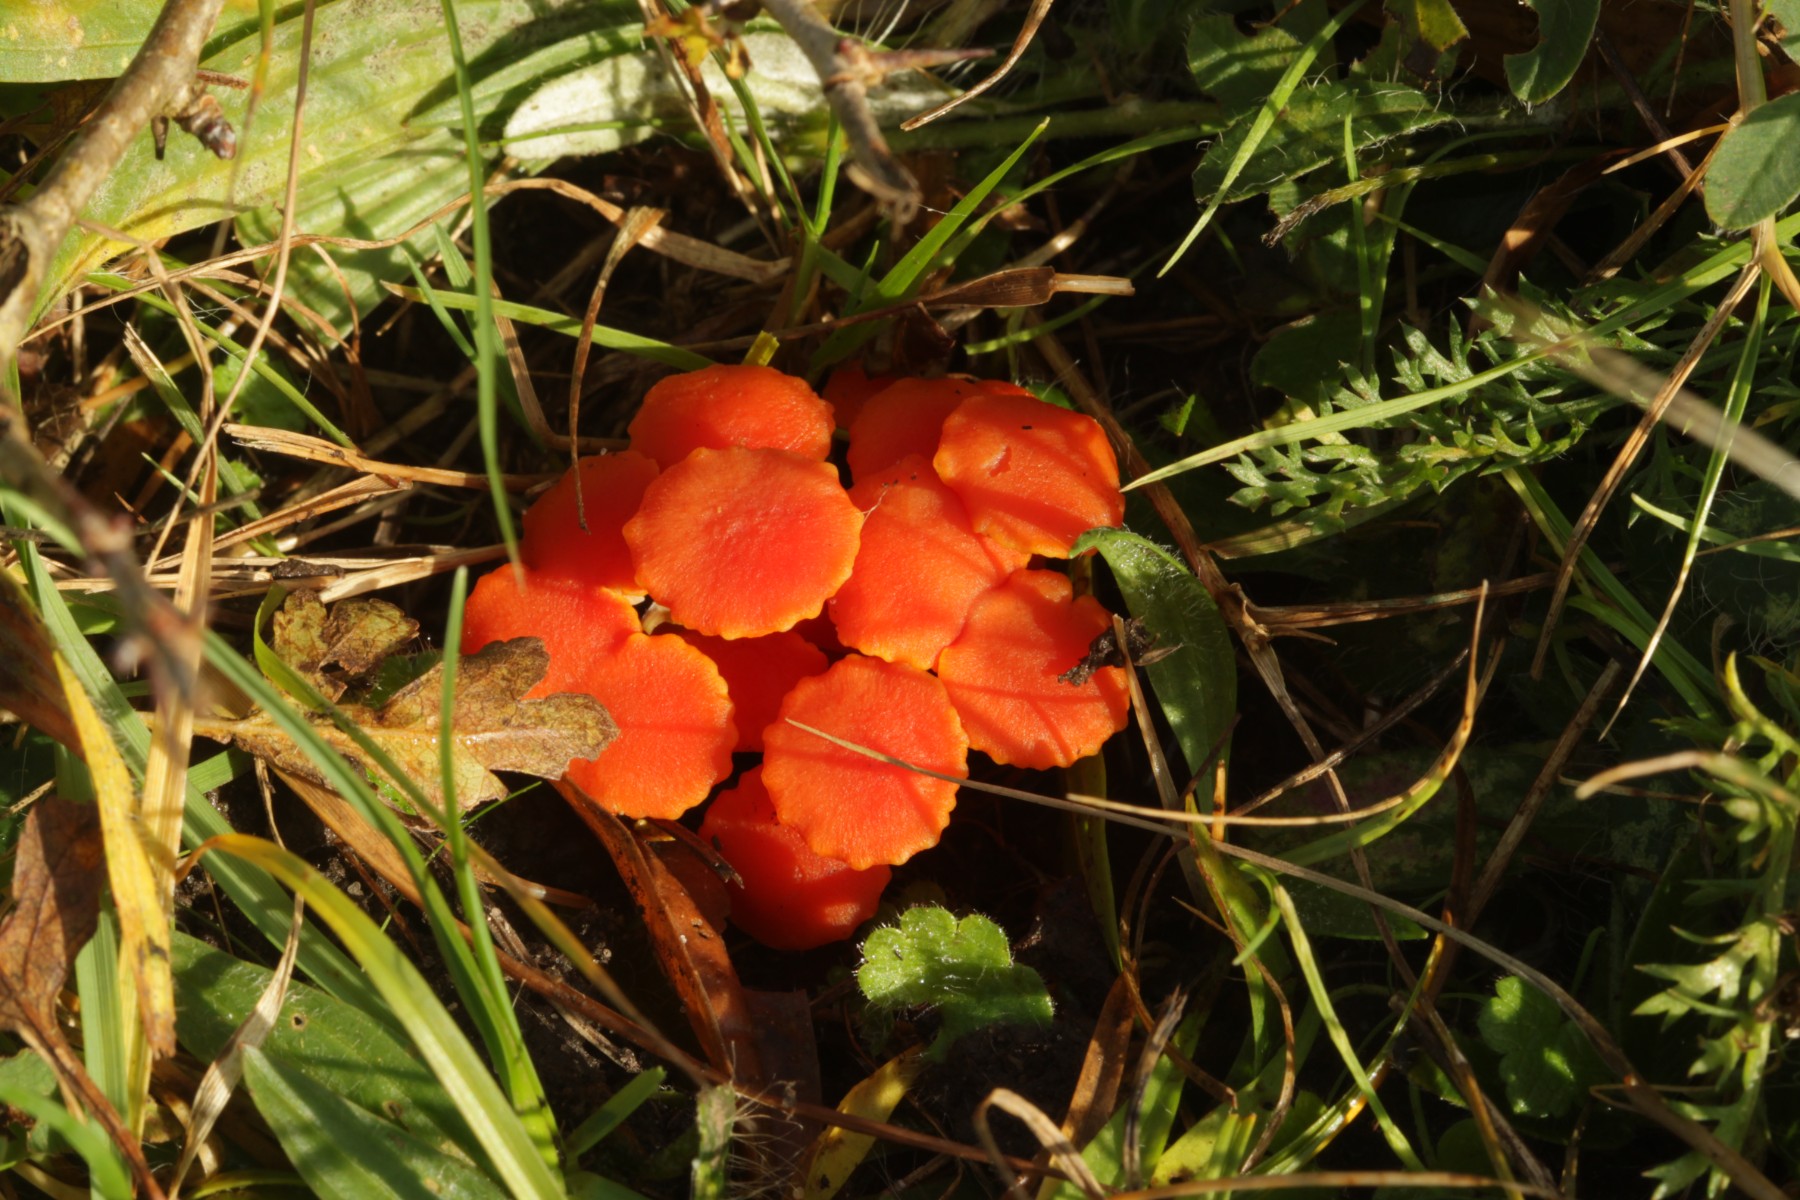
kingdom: Fungi
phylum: Basidiomycota
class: Agaricomycetes
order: Agaricales
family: Hygrophoraceae
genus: Hygrocybe
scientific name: Hygrocybe reidii
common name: honning-vokshat
